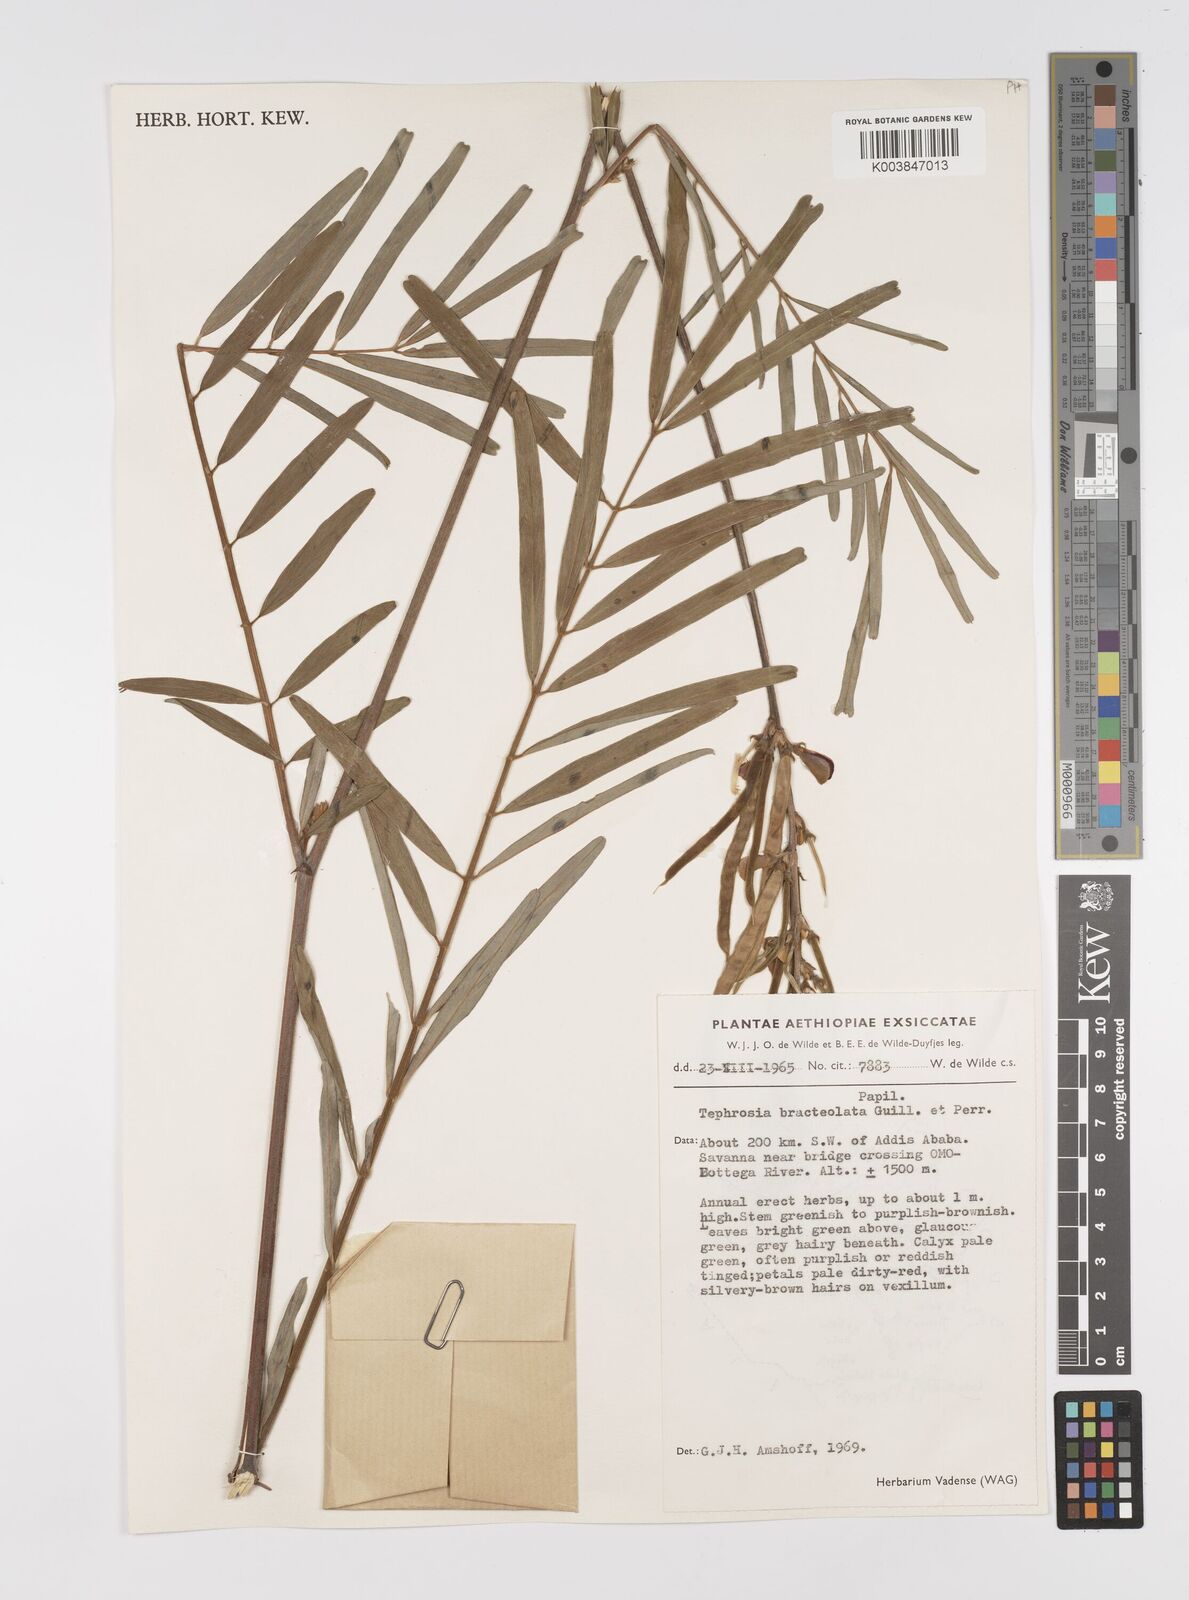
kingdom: Plantae
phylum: Tracheophyta
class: Magnoliopsida
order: Fabales
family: Fabaceae
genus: Tephrosia
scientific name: Tephrosia bracteolata
